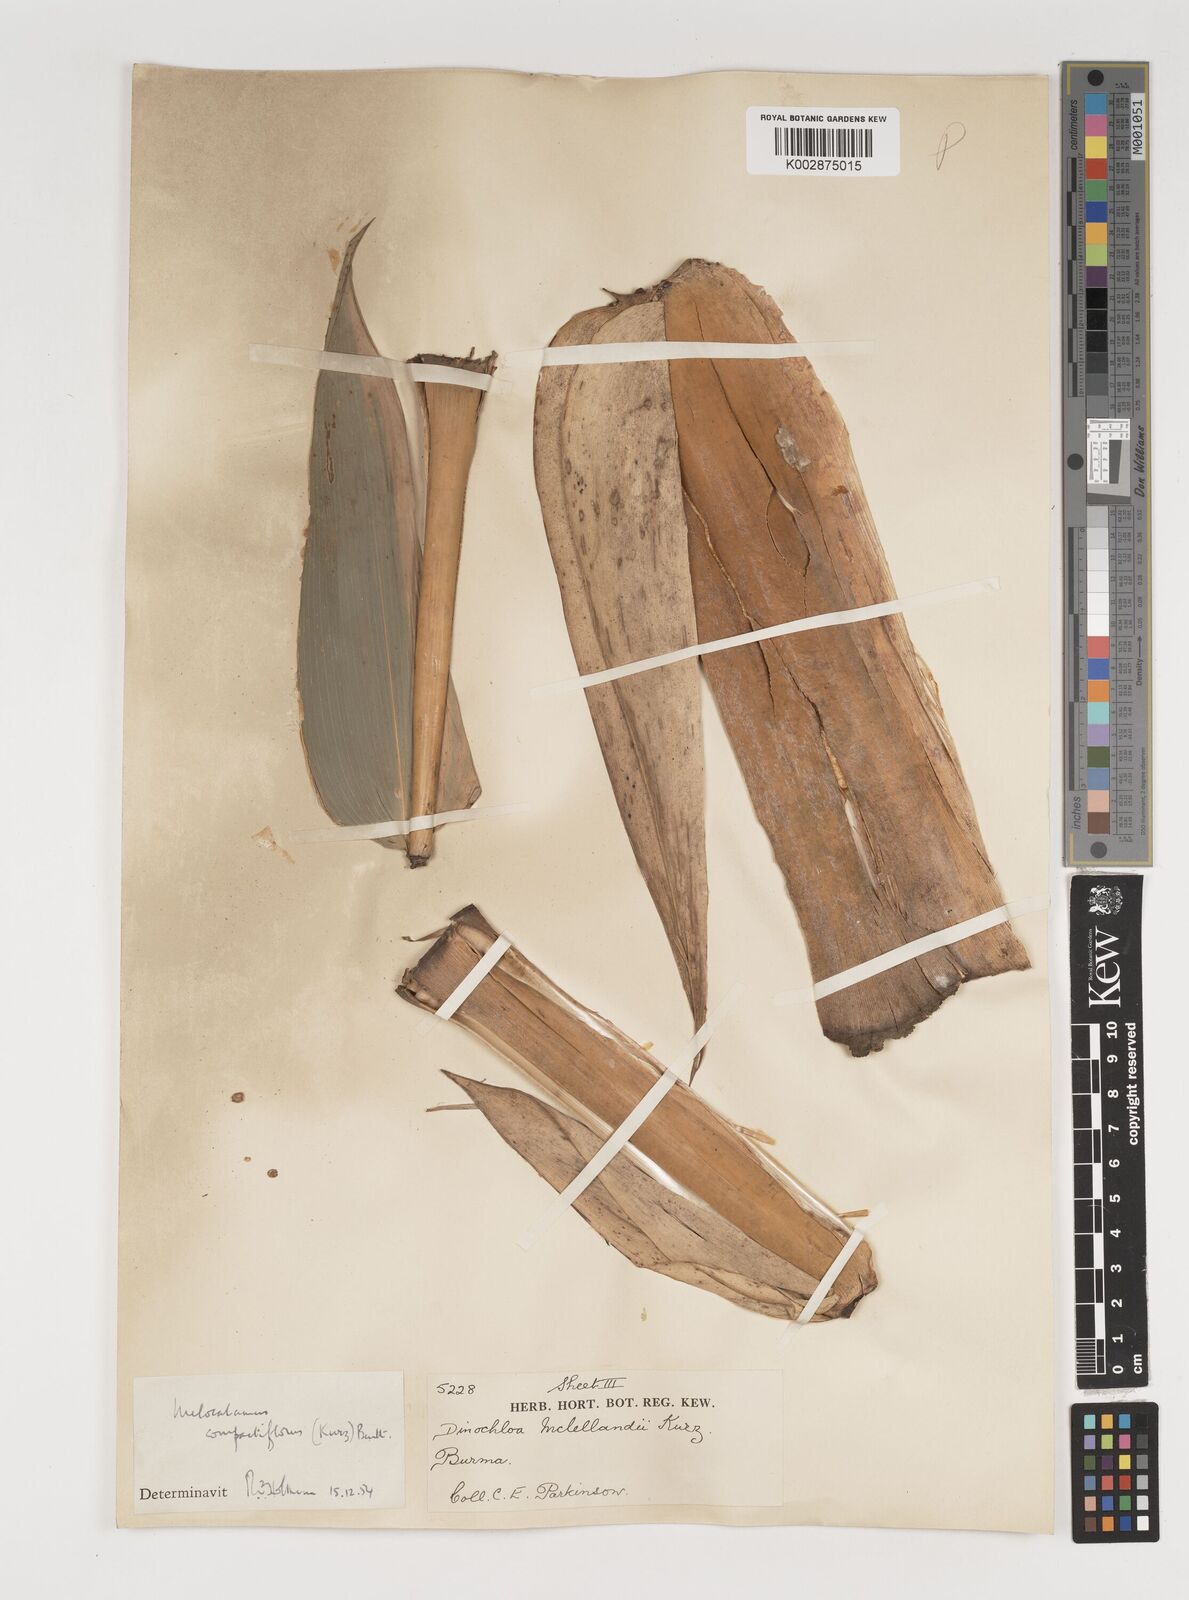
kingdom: Plantae
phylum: Tracheophyta
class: Liliopsida
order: Poales
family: Poaceae
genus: Melocalamus
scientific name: Melocalamus compactiflorus
